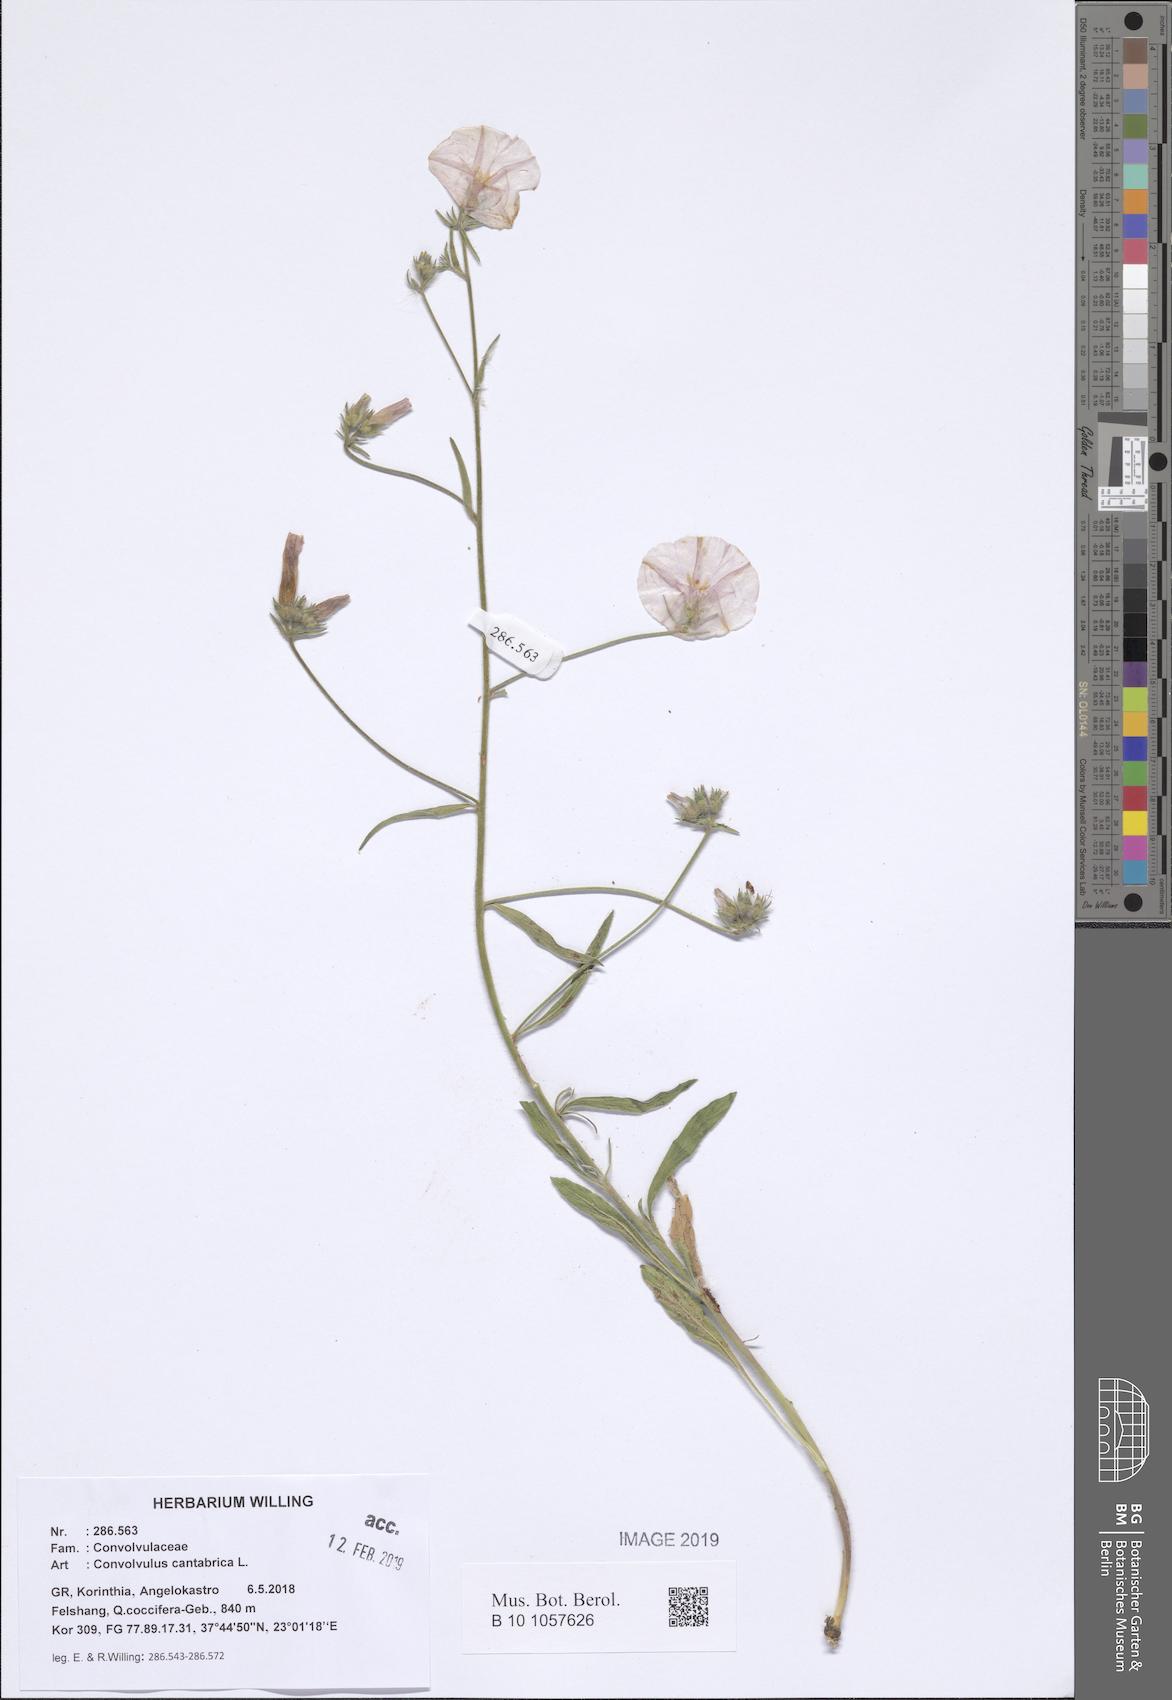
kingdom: Plantae
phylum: Tracheophyta
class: Magnoliopsida
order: Solanales
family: Convolvulaceae
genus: Convolvulus
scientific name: Convolvulus cantabrica
